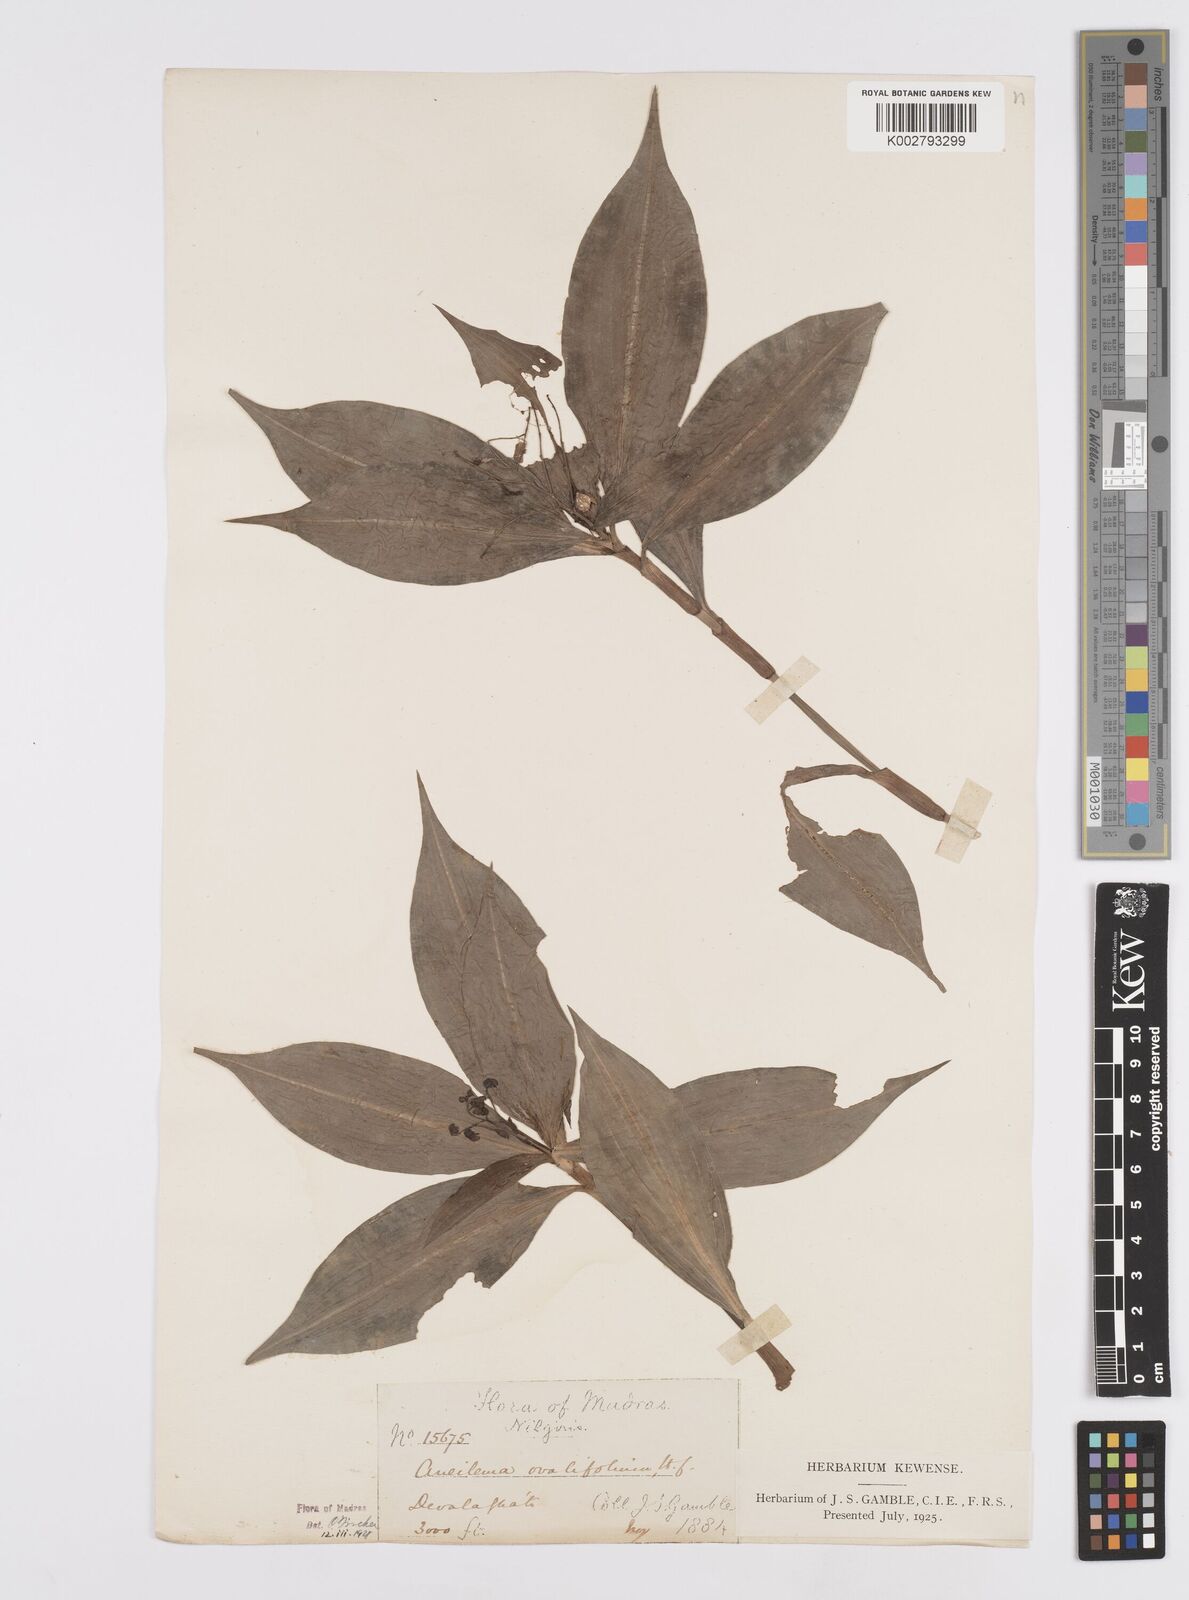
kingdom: Plantae
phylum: Tracheophyta
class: Liliopsida
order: Commelinales
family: Commelinaceae
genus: Murdannia
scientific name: Murdannia
